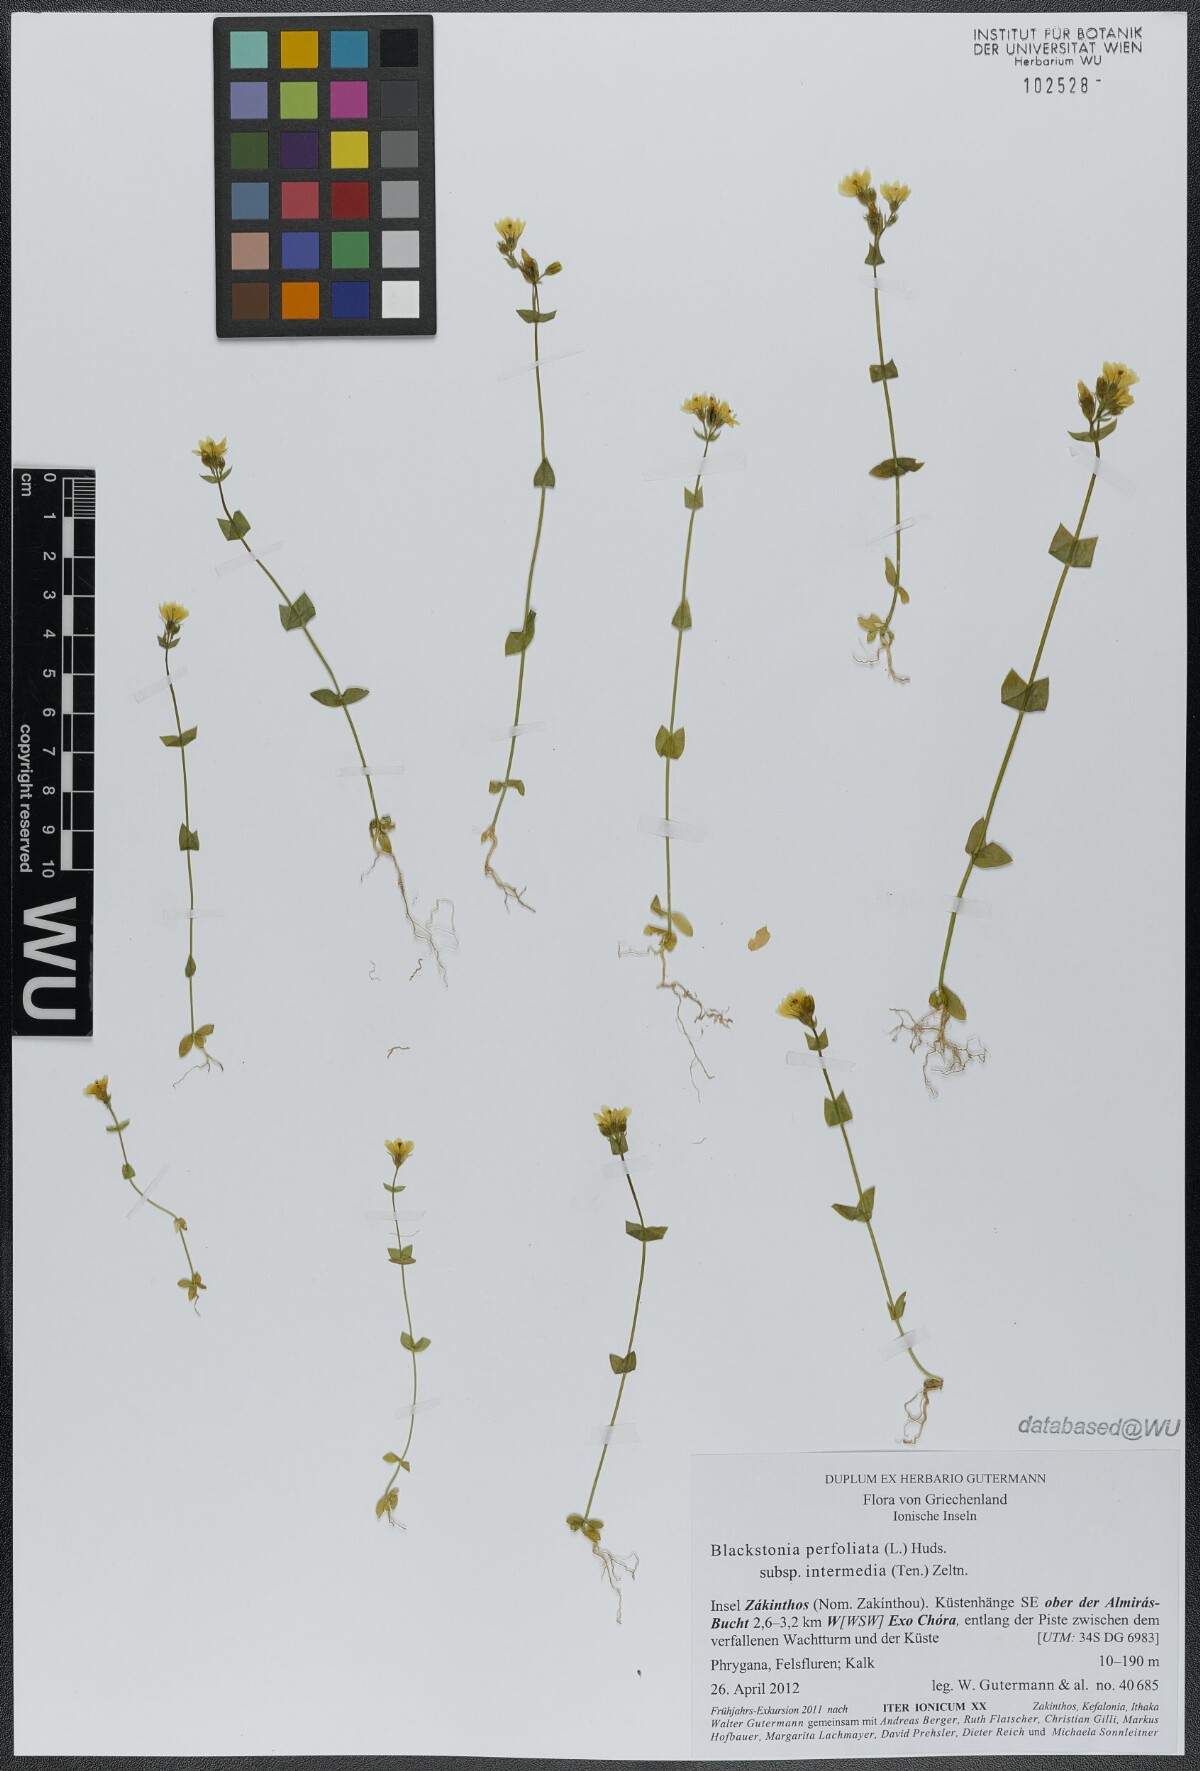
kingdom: Plantae
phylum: Tracheophyta
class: Magnoliopsida
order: Gentianales
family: Gentianaceae
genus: Blackstonia
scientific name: Blackstonia perfoliata
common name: Yellow-wort
